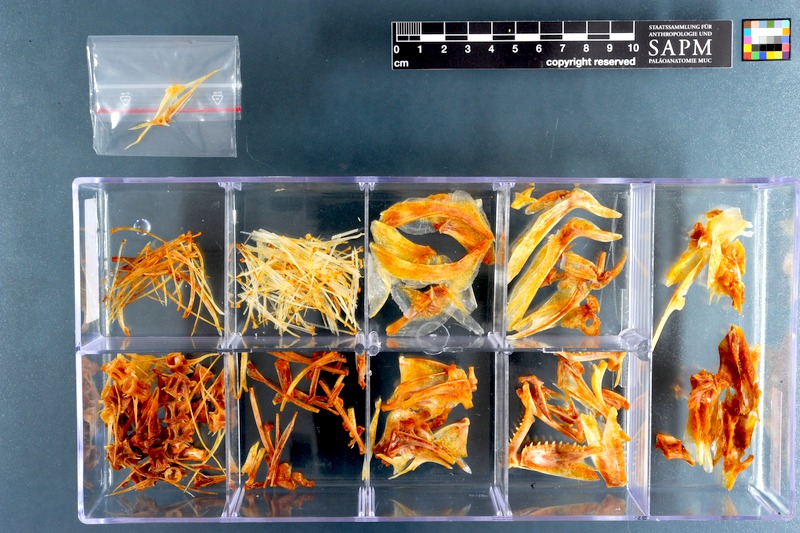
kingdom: Animalia
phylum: Chordata
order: Perciformes
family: Pomatomidae
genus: Pomatomus
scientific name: Pomatomus saltatrix
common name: Bluefish
